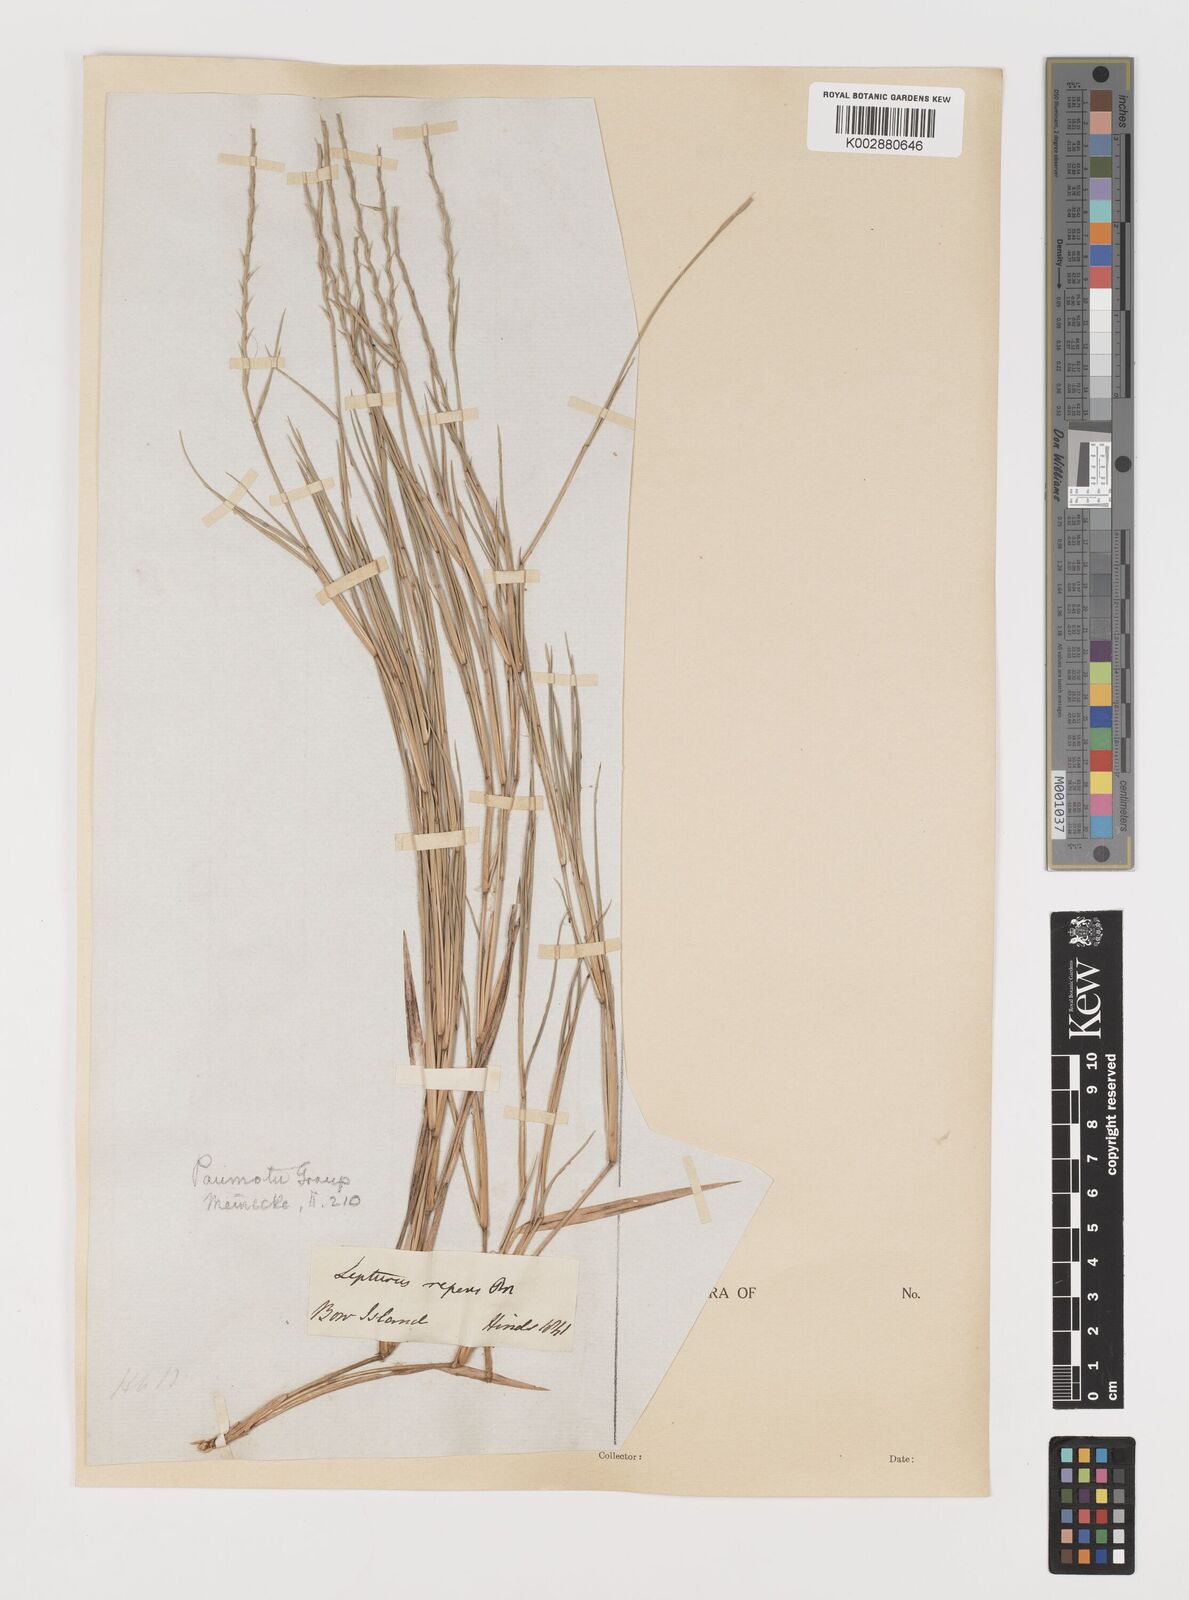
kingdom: Plantae
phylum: Tracheophyta
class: Liliopsida
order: Poales
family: Poaceae
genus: Lepturus
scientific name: Lepturus
